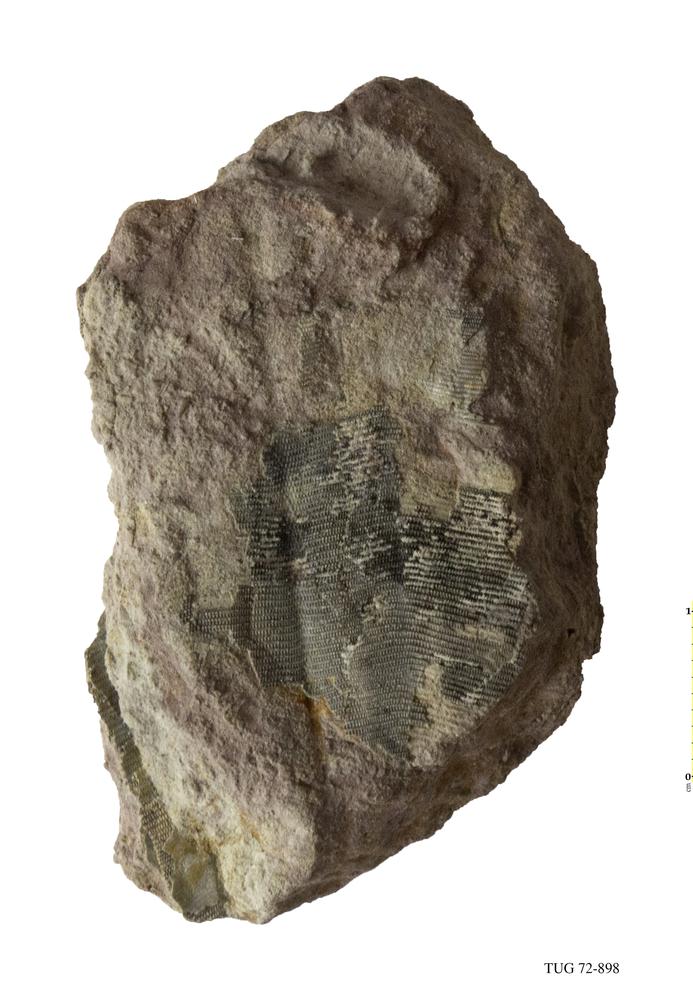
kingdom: Animalia
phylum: Cnidaria
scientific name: Cnidaria
